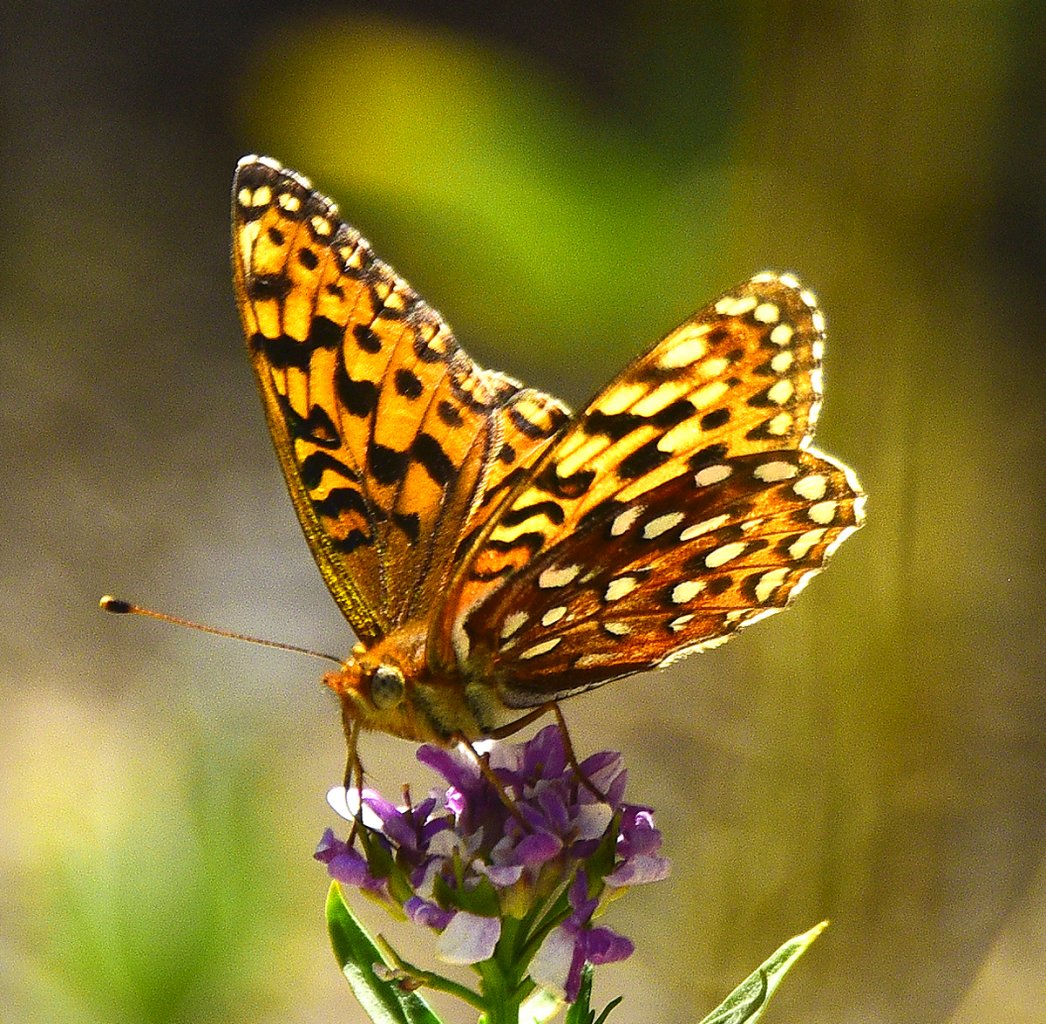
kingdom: Animalia
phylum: Arthropoda
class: Insecta
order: Lepidoptera
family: Nymphalidae
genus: Speyeria
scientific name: Speyeria zerene
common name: Zerene Fritillary
